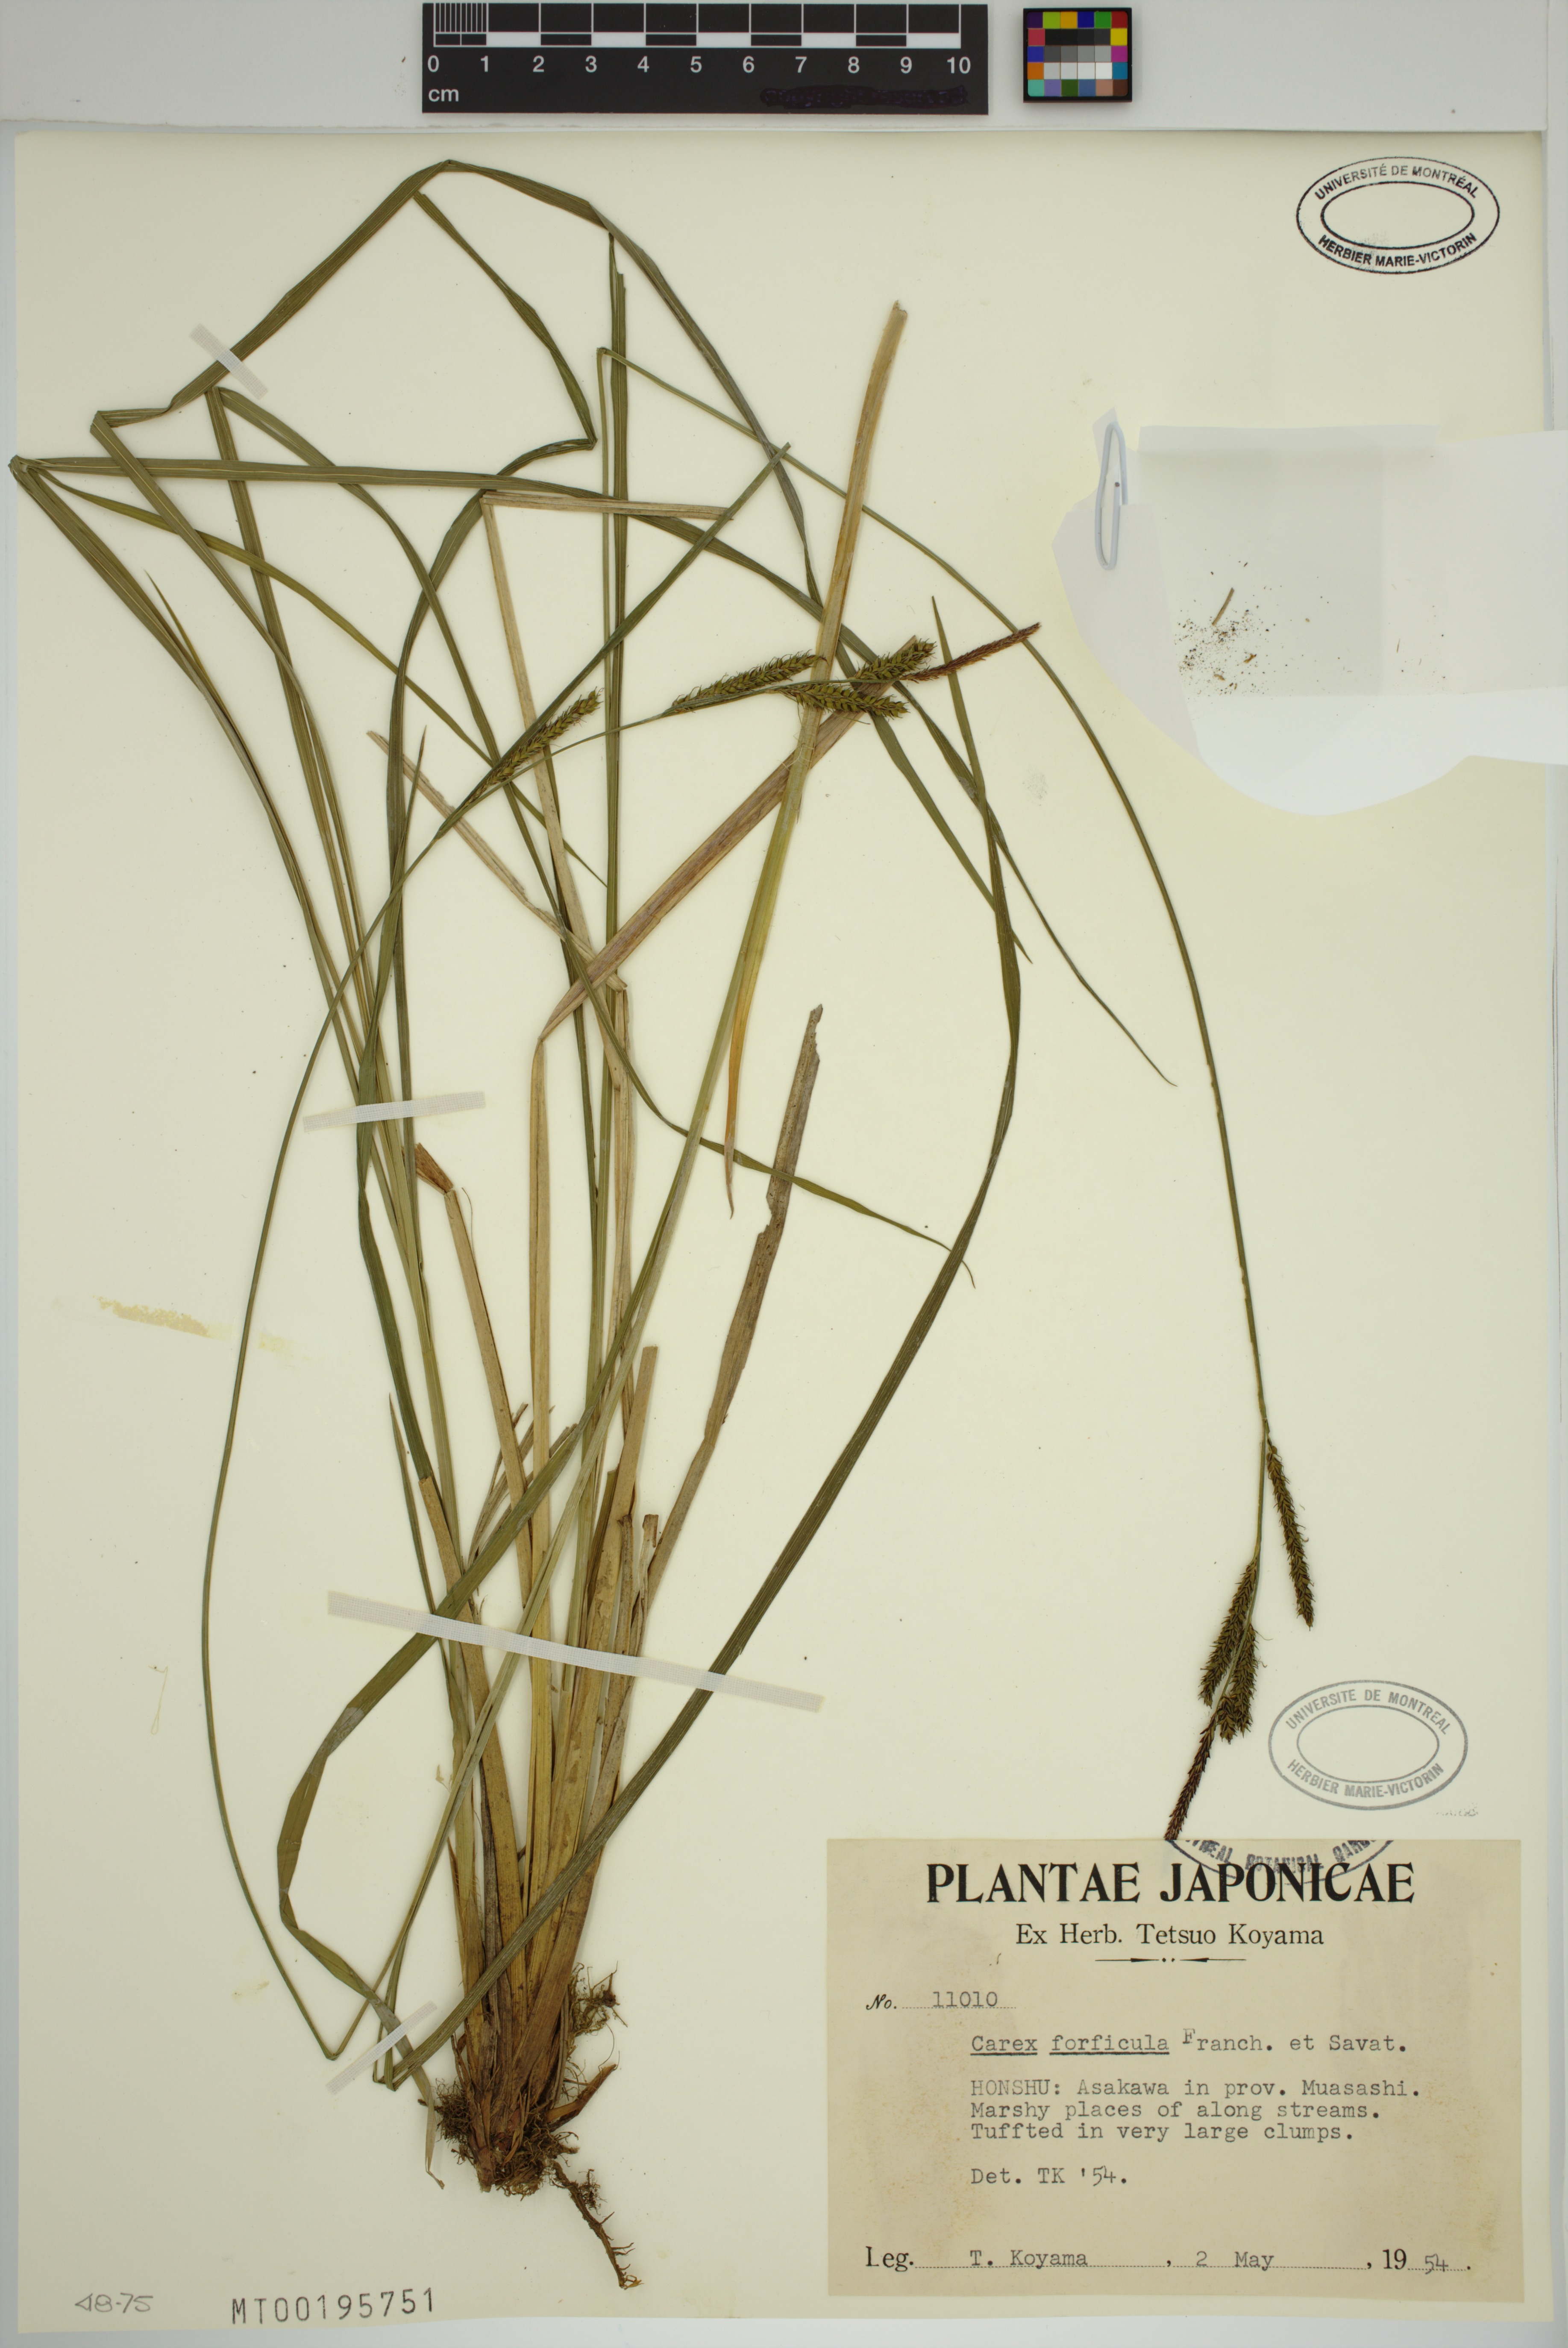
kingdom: Plantae
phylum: Tracheophyta
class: Liliopsida
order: Poales
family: Cyperaceae
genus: Carex
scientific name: Carex forficula
